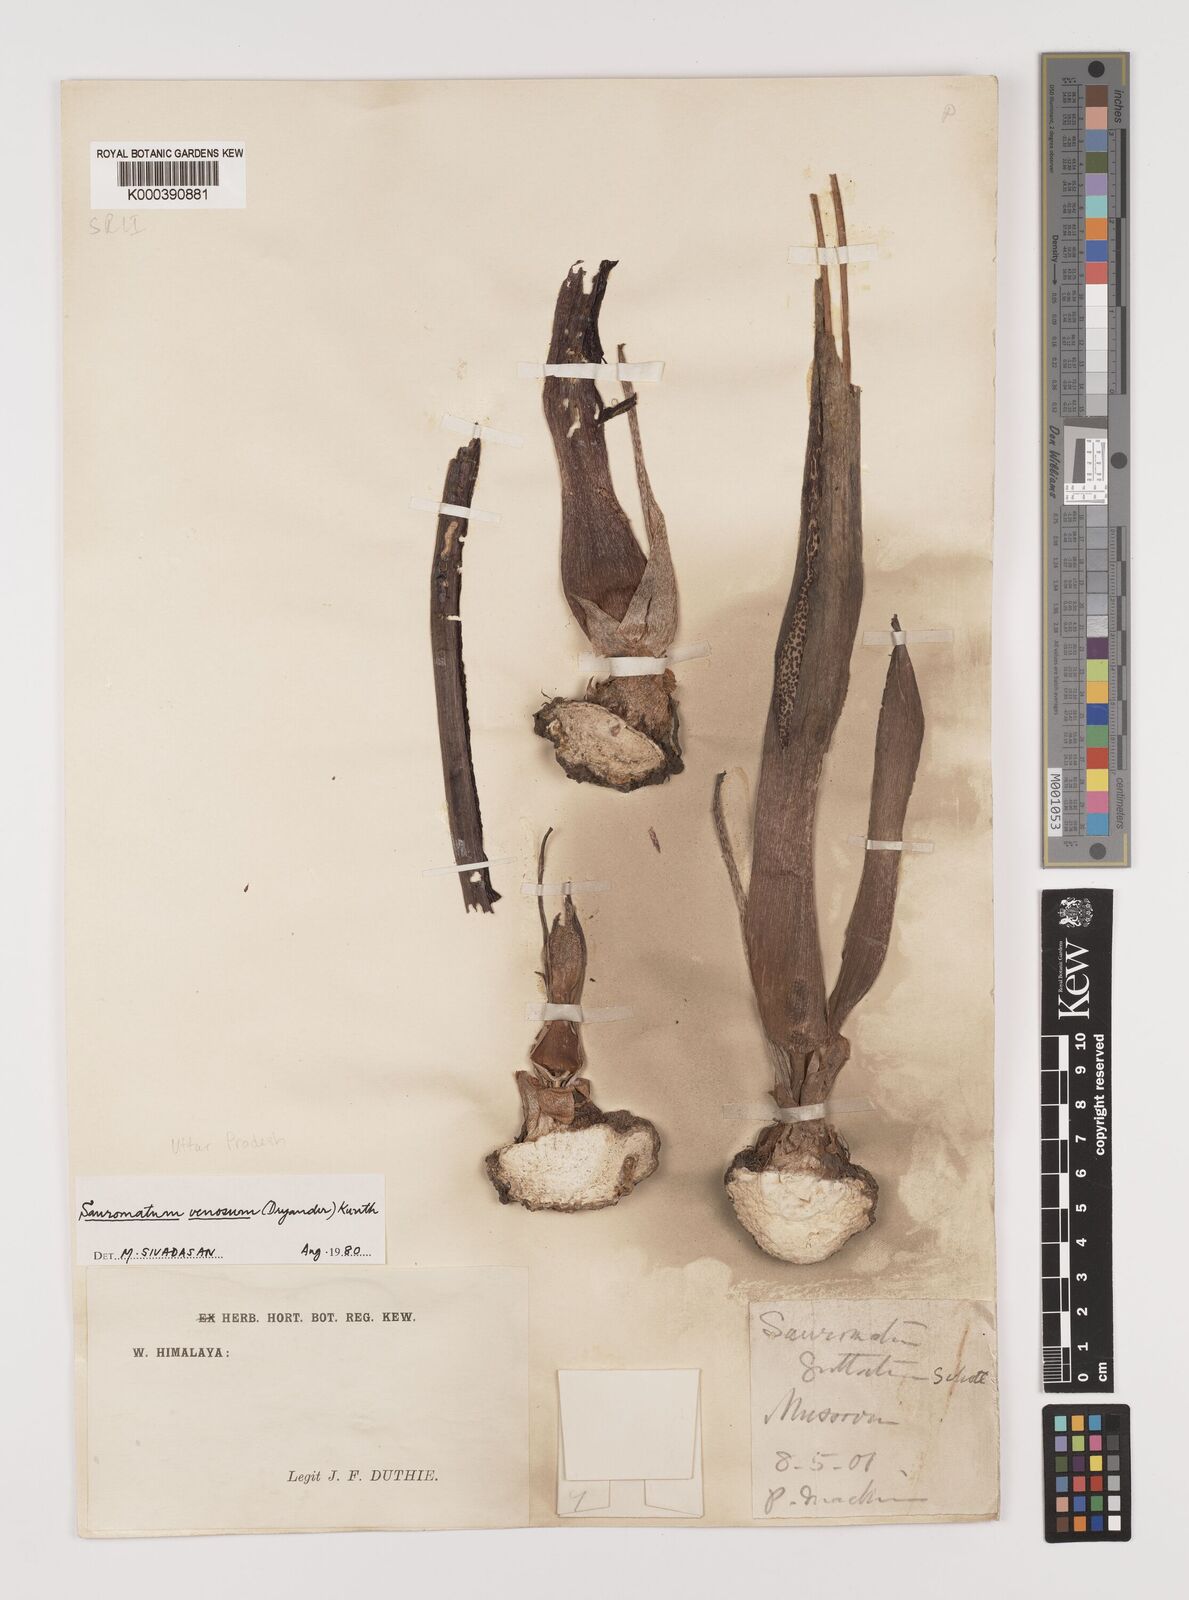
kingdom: Plantae
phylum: Tracheophyta
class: Liliopsida
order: Alismatales
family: Araceae
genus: Sauromatum
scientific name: Sauromatum venosum
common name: Voodoo lily
